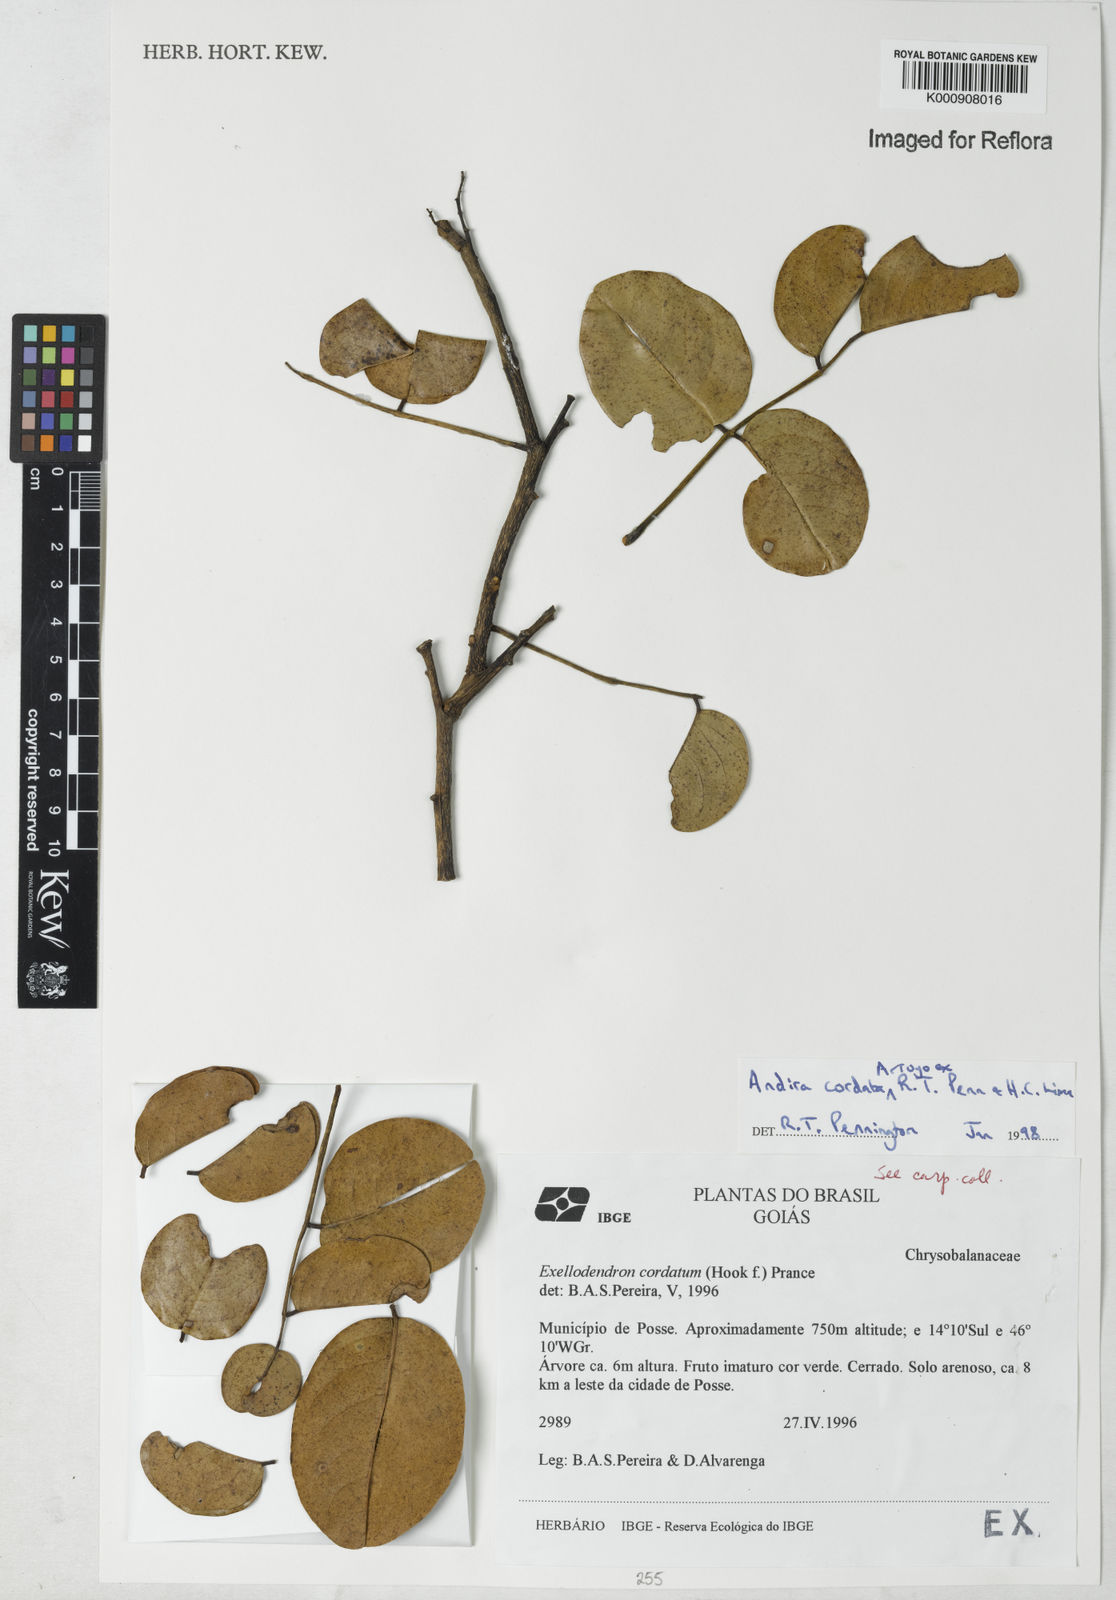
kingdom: Plantae
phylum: Tracheophyta
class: Magnoliopsida
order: Fabales
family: Fabaceae
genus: Andira
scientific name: Andira cordata
